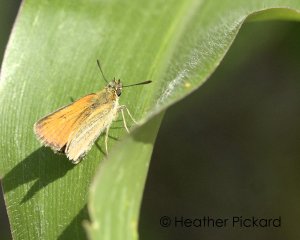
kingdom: Animalia
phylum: Arthropoda
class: Insecta
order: Lepidoptera
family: Hesperiidae
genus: Thymelicus
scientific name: Thymelicus lineola
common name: European Skipper
